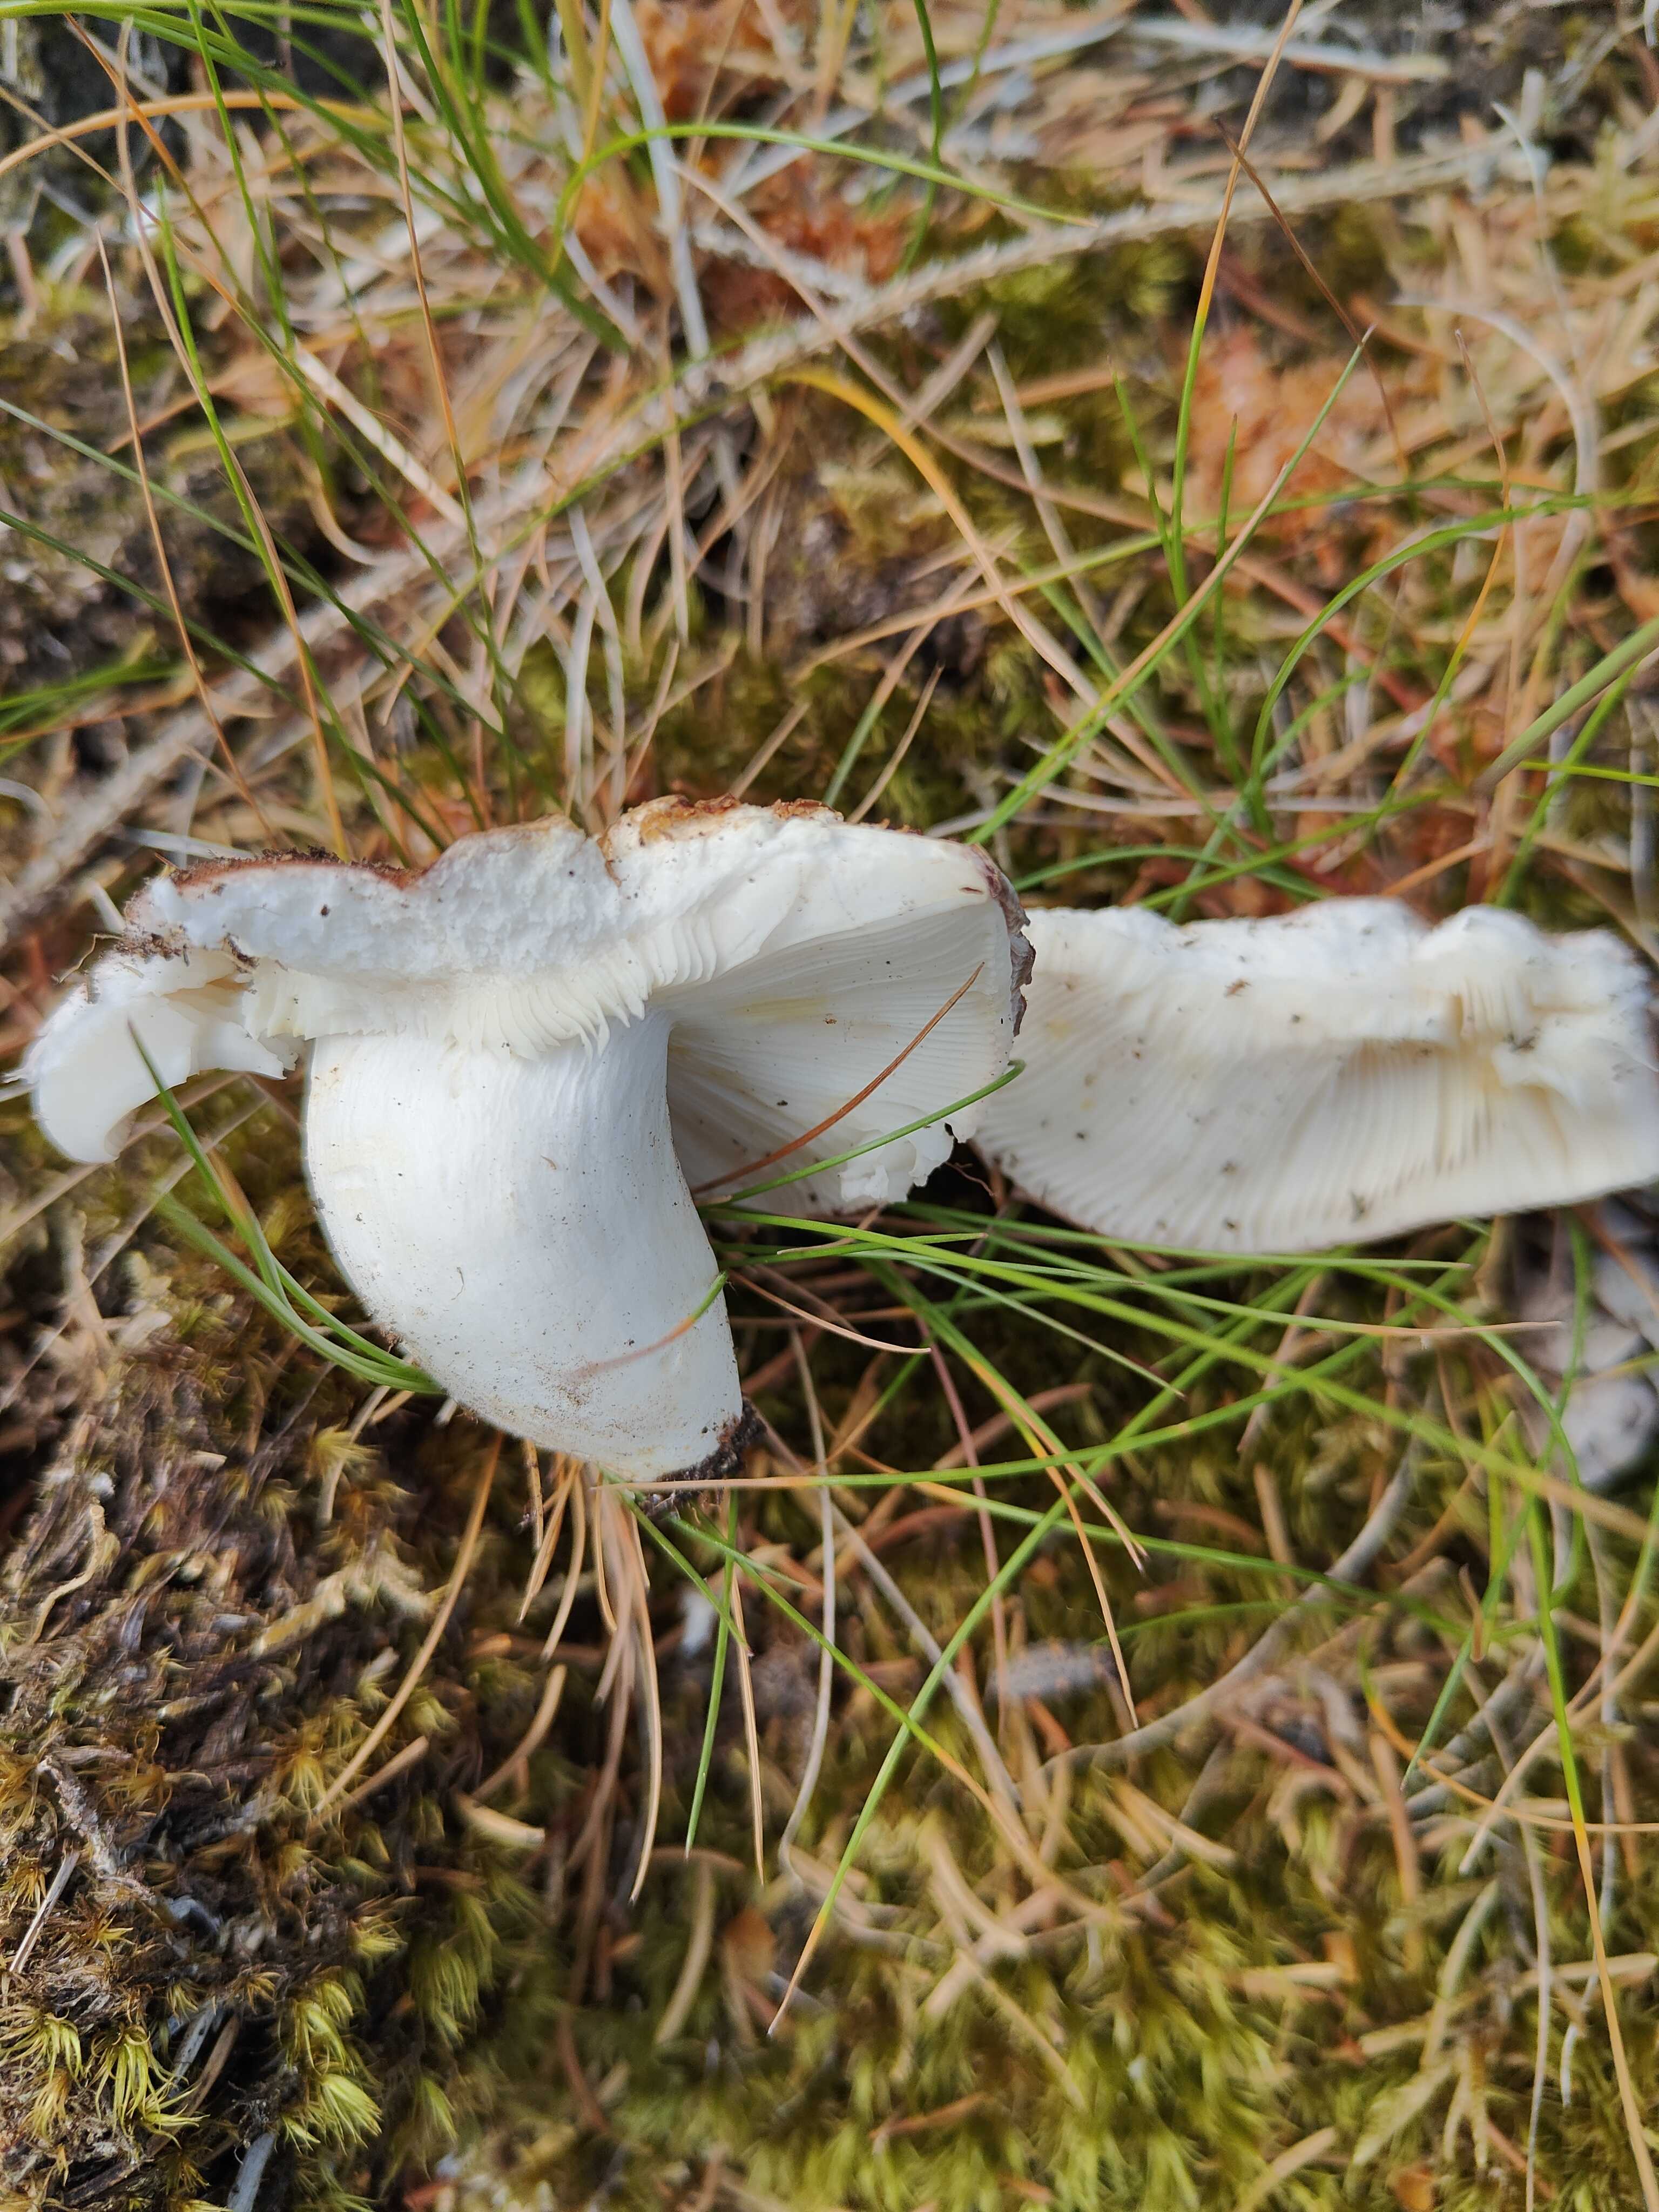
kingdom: Fungi
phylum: Basidiomycota
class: Agaricomycetes
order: Russulales
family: Russulaceae
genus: Russula
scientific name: Russula vesca
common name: spiselig skørhat
